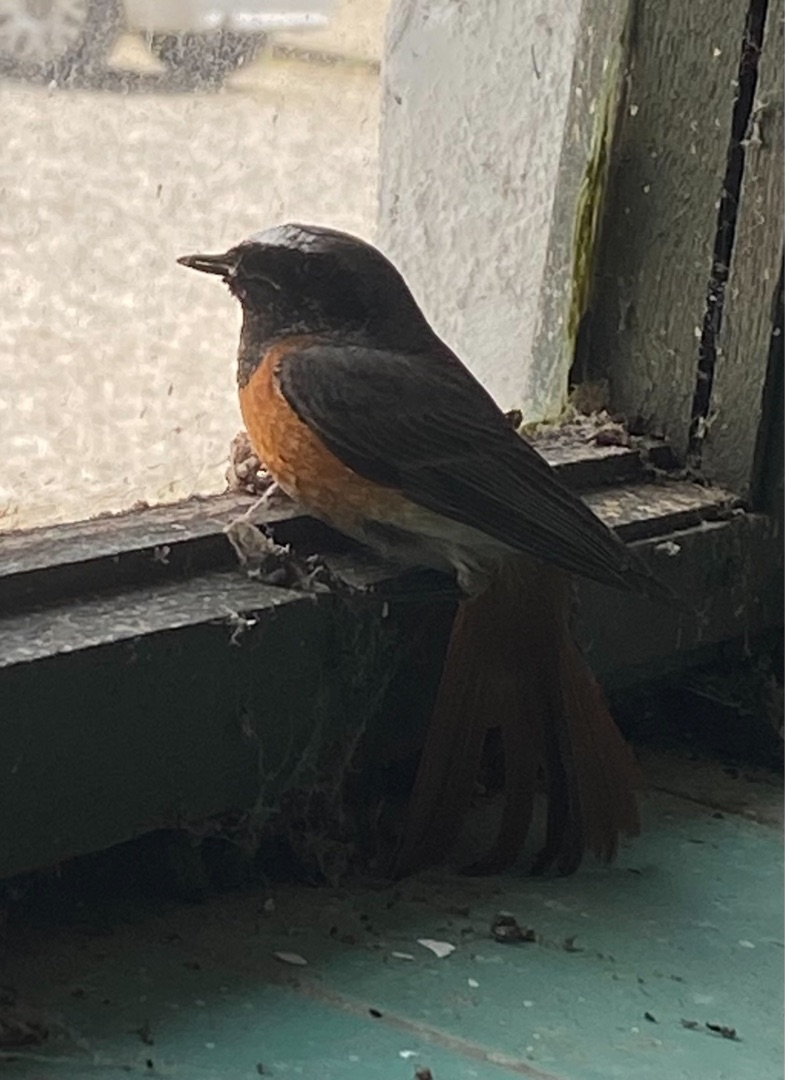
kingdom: Animalia
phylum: Chordata
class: Aves
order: Passeriformes
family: Muscicapidae
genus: Phoenicurus
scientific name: Phoenicurus phoenicurus
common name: Rødstjert
